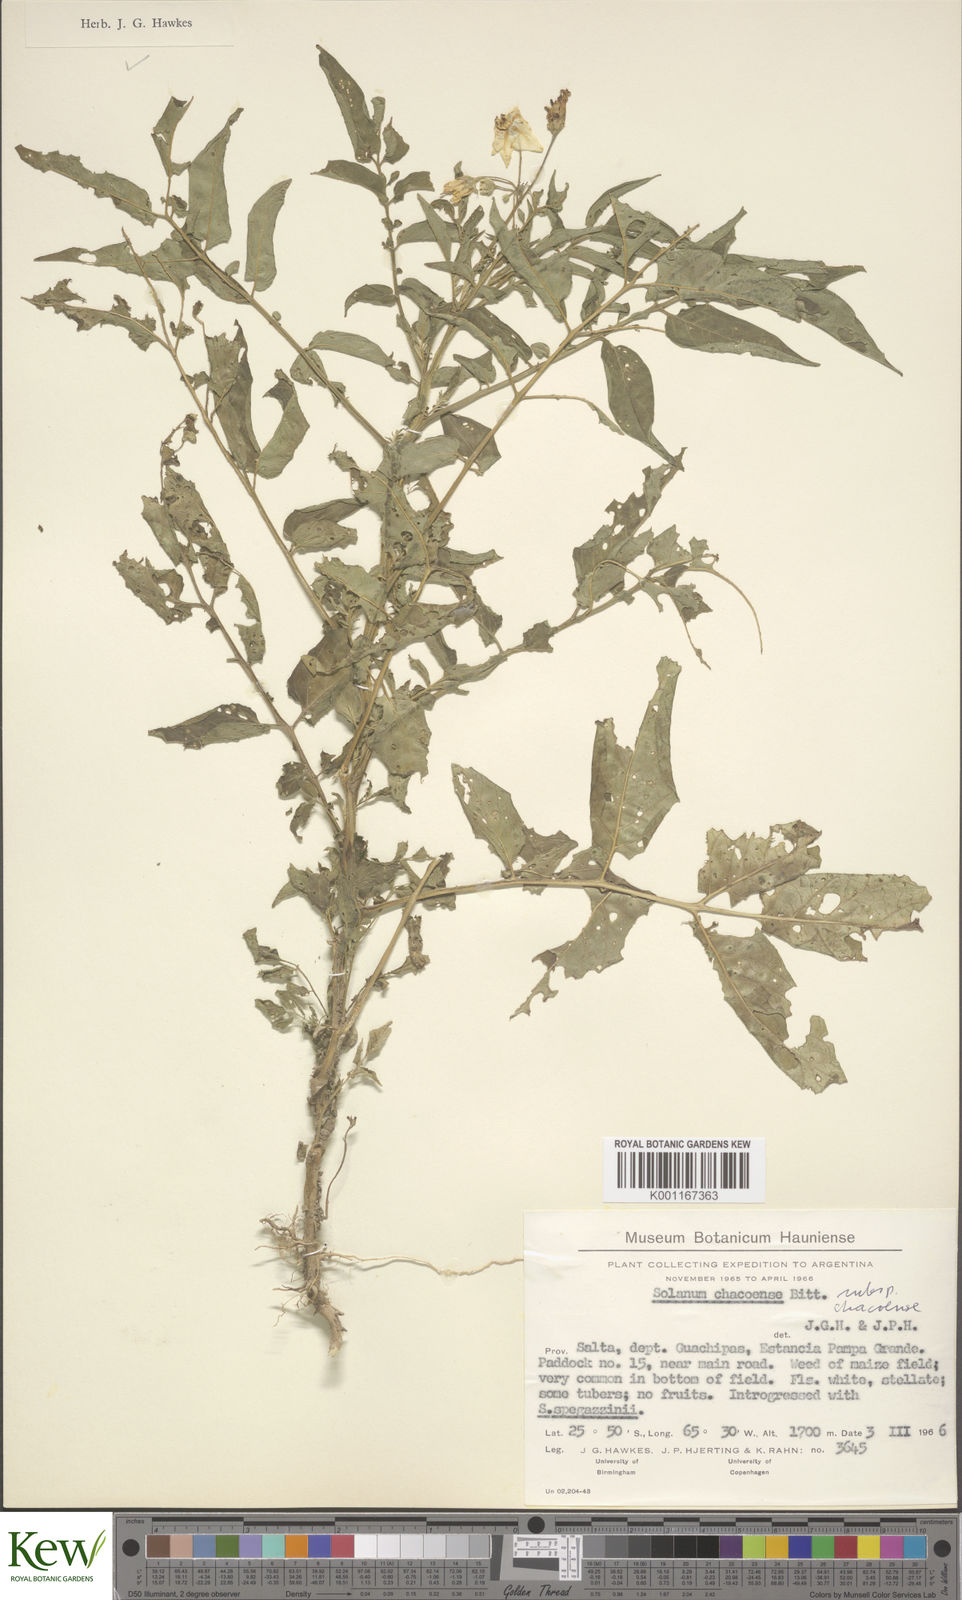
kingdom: Plantae
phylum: Tracheophyta
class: Magnoliopsida
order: Solanales
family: Solanaceae
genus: Solanum
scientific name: Solanum chacoense
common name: Chaco potato
